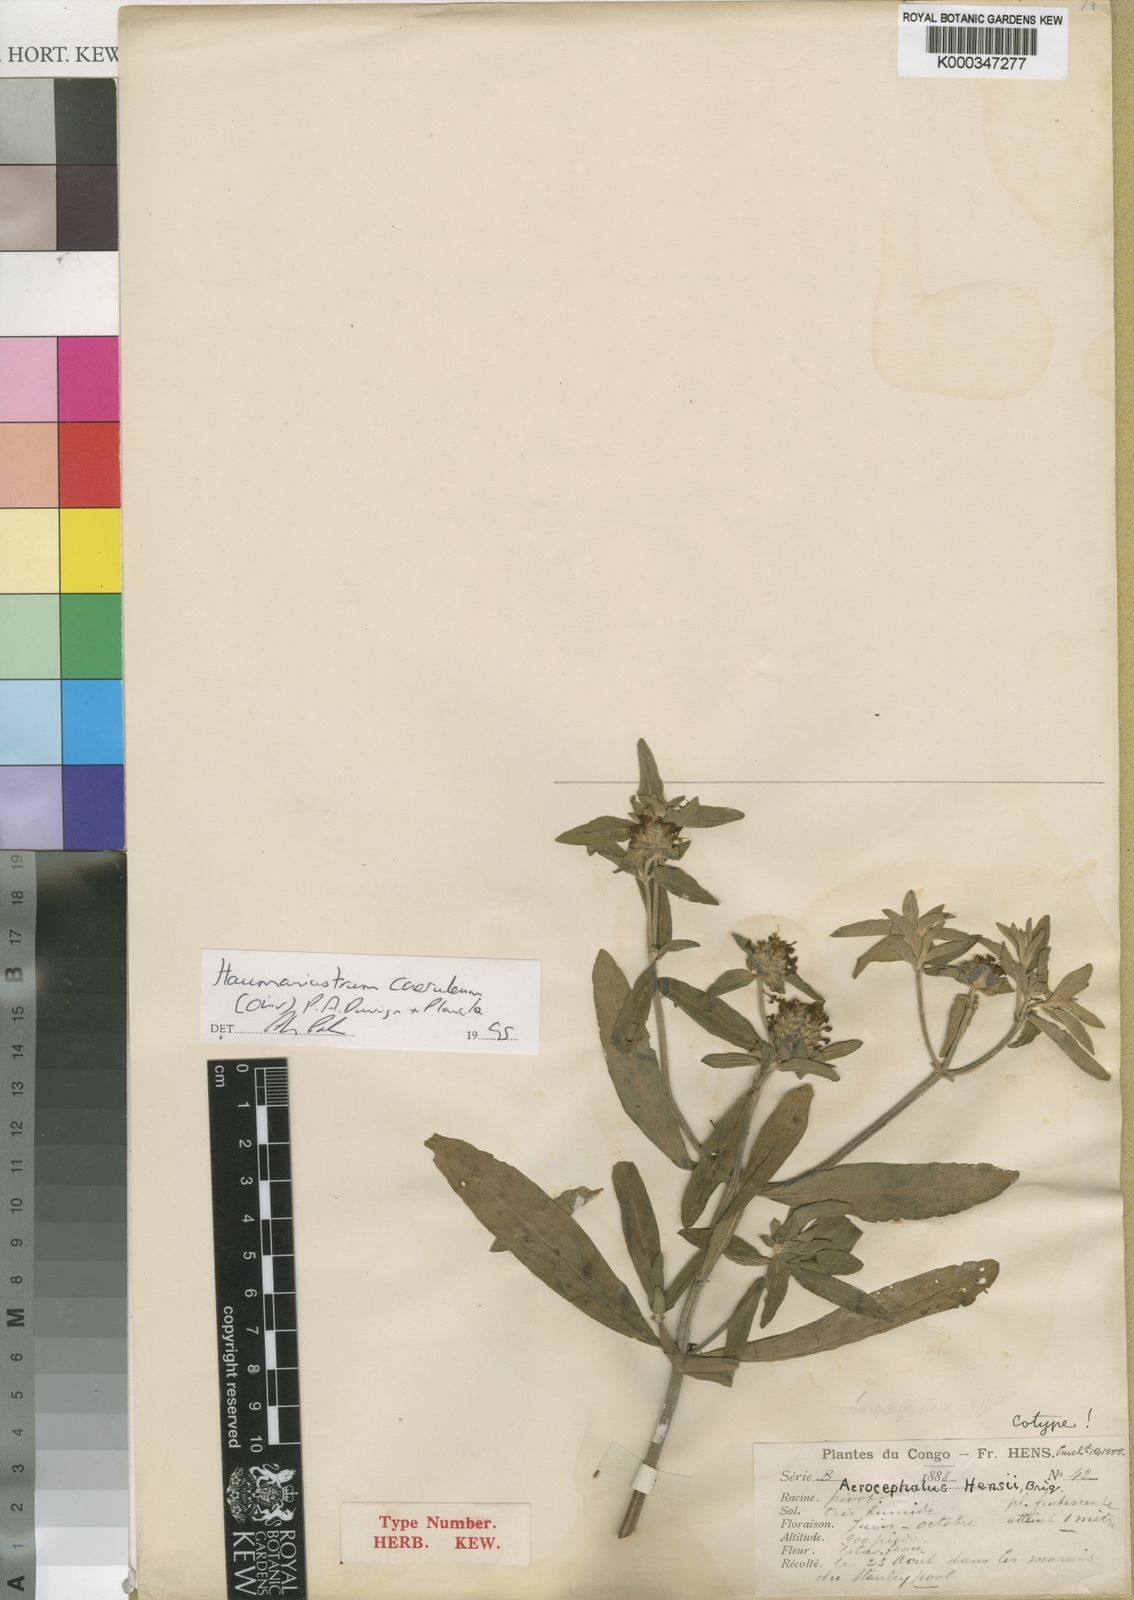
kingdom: Plantae
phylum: Tracheophyta
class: Magnoliopsida
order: Lamiales
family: Lamiaceae
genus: Haumaniastrum
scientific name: Haumaniastrum caeruleum
